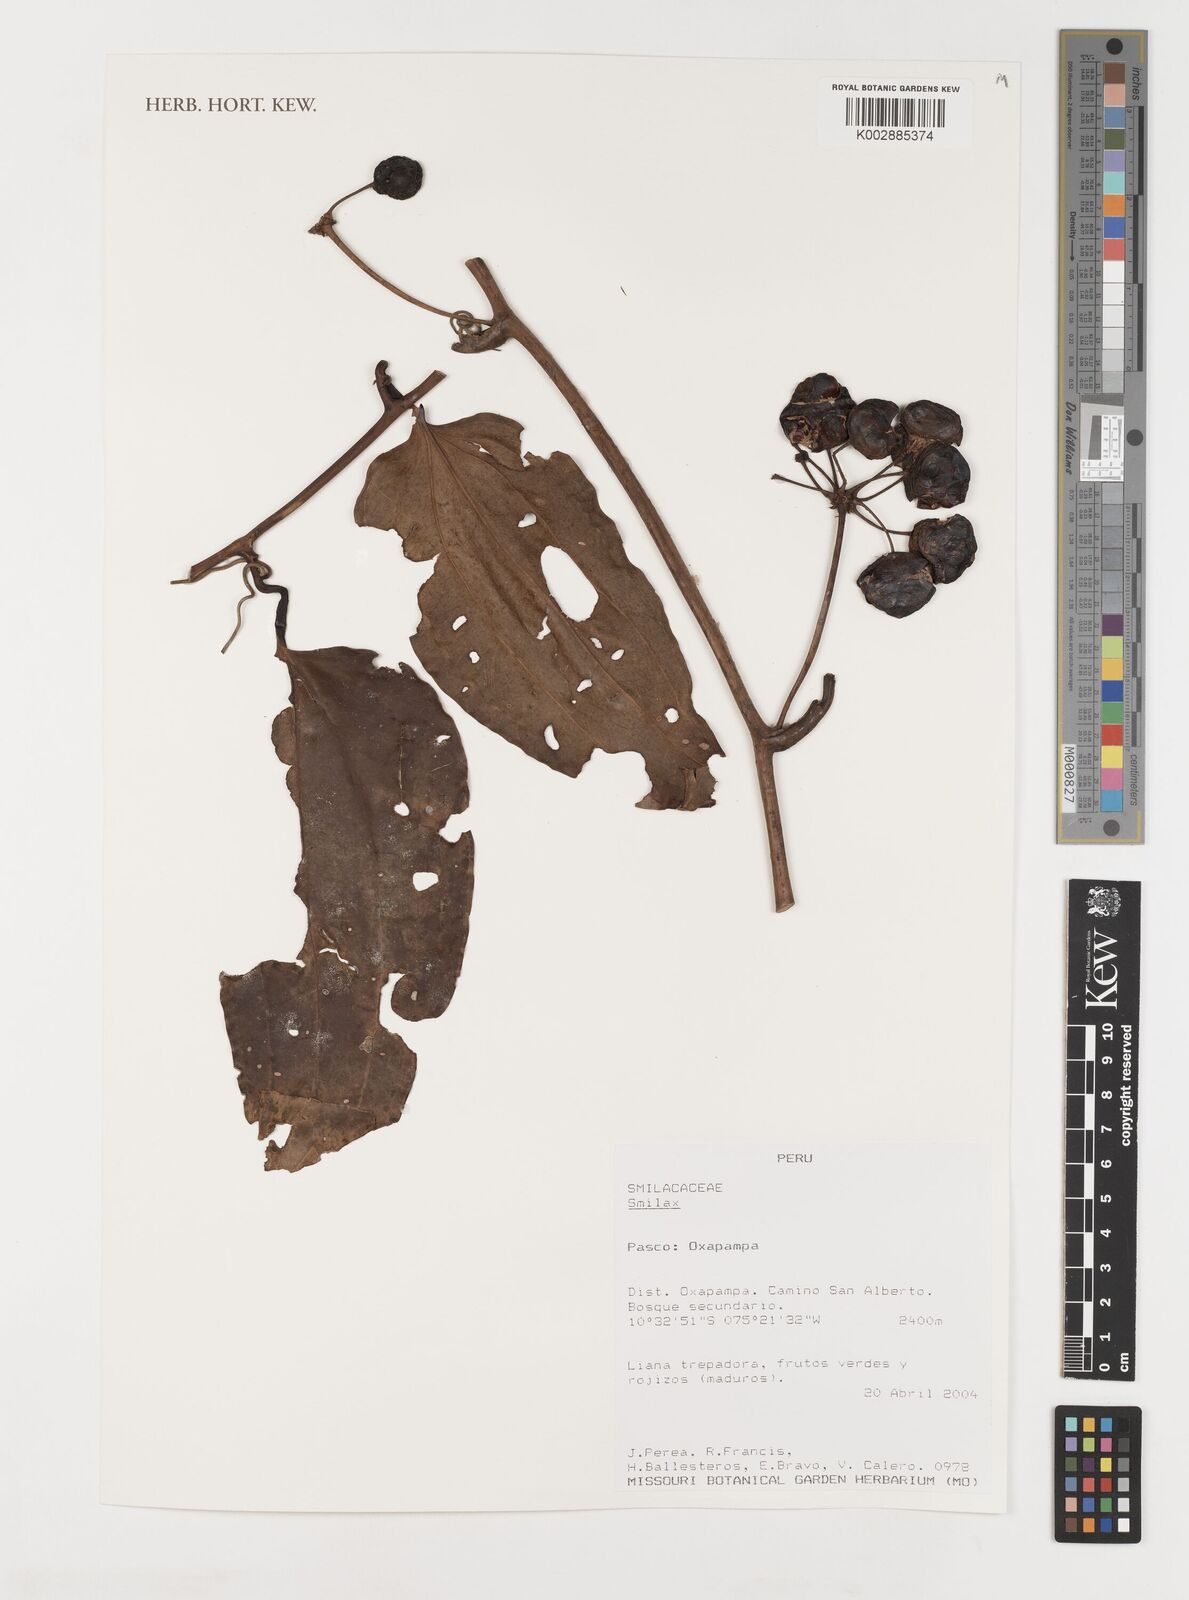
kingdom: Plantae
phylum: Tracheophyta
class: Liliopsida
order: Liliales
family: Smilacaceae
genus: Smilax
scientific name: Smilax
